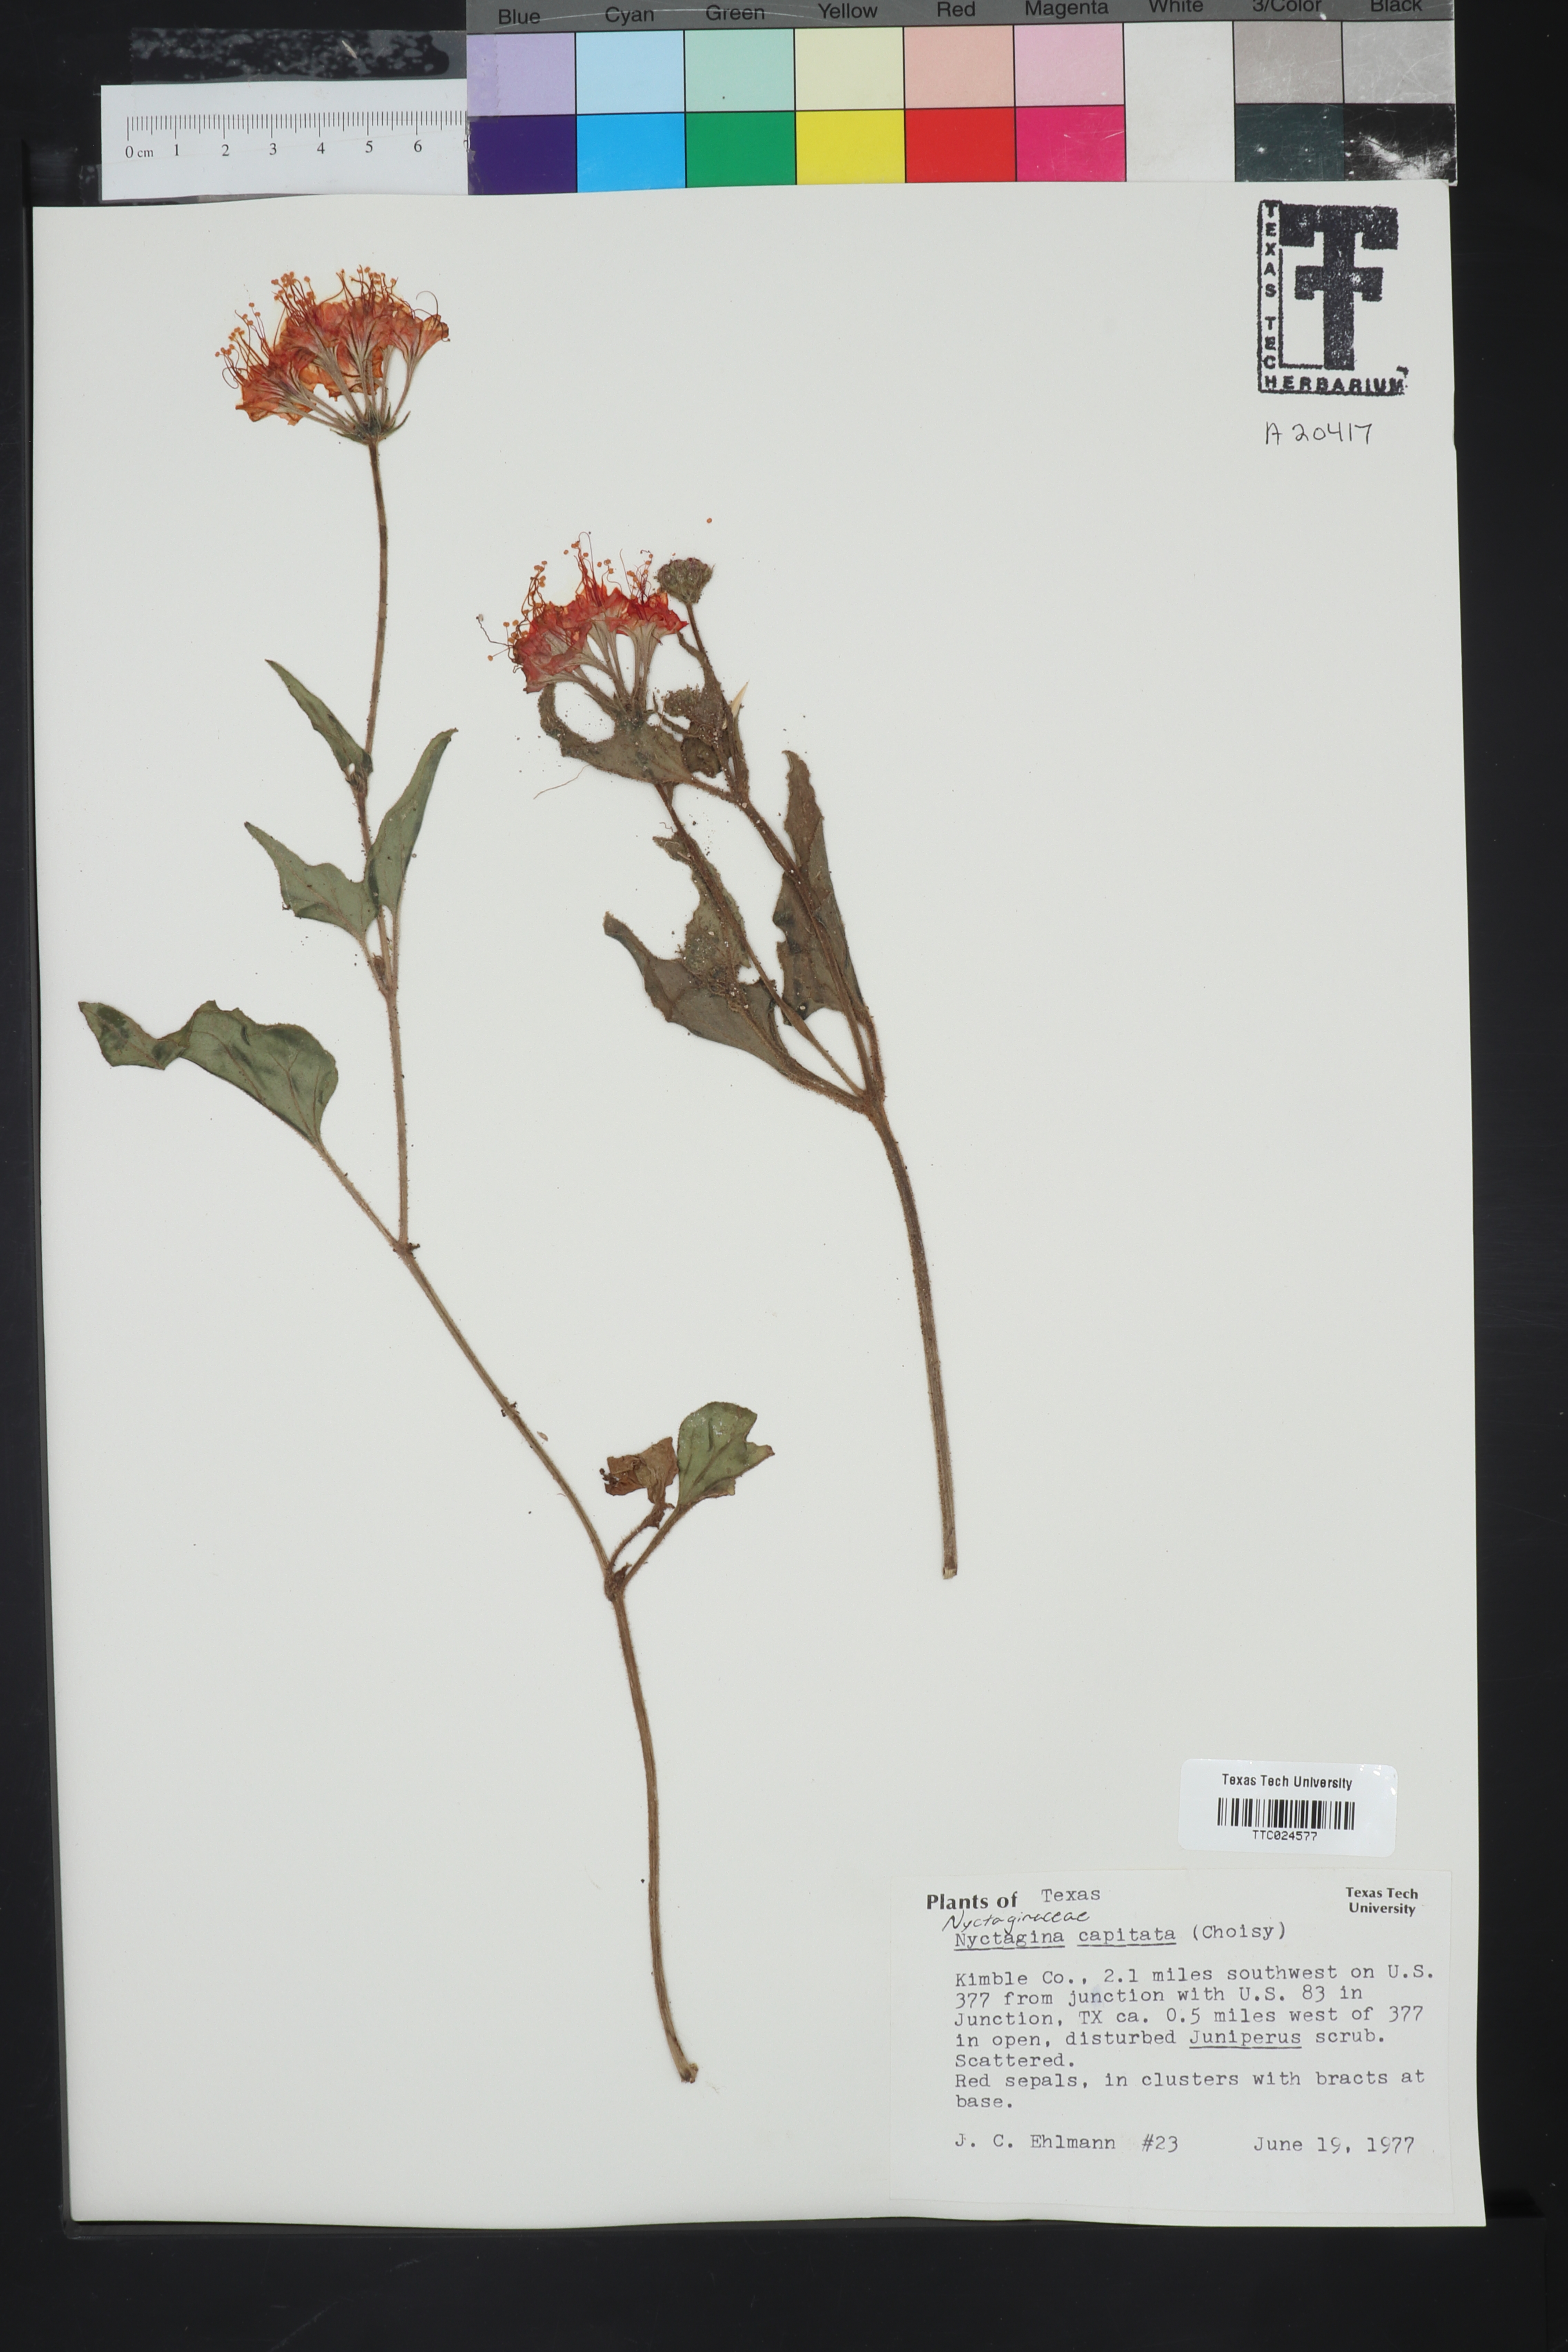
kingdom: Plantae
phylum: Tracheophyta
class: Magnoliopsida
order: Caryophyllales
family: Nyctaginaceae
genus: Nyctaginia
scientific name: Nyctaginia capitata
